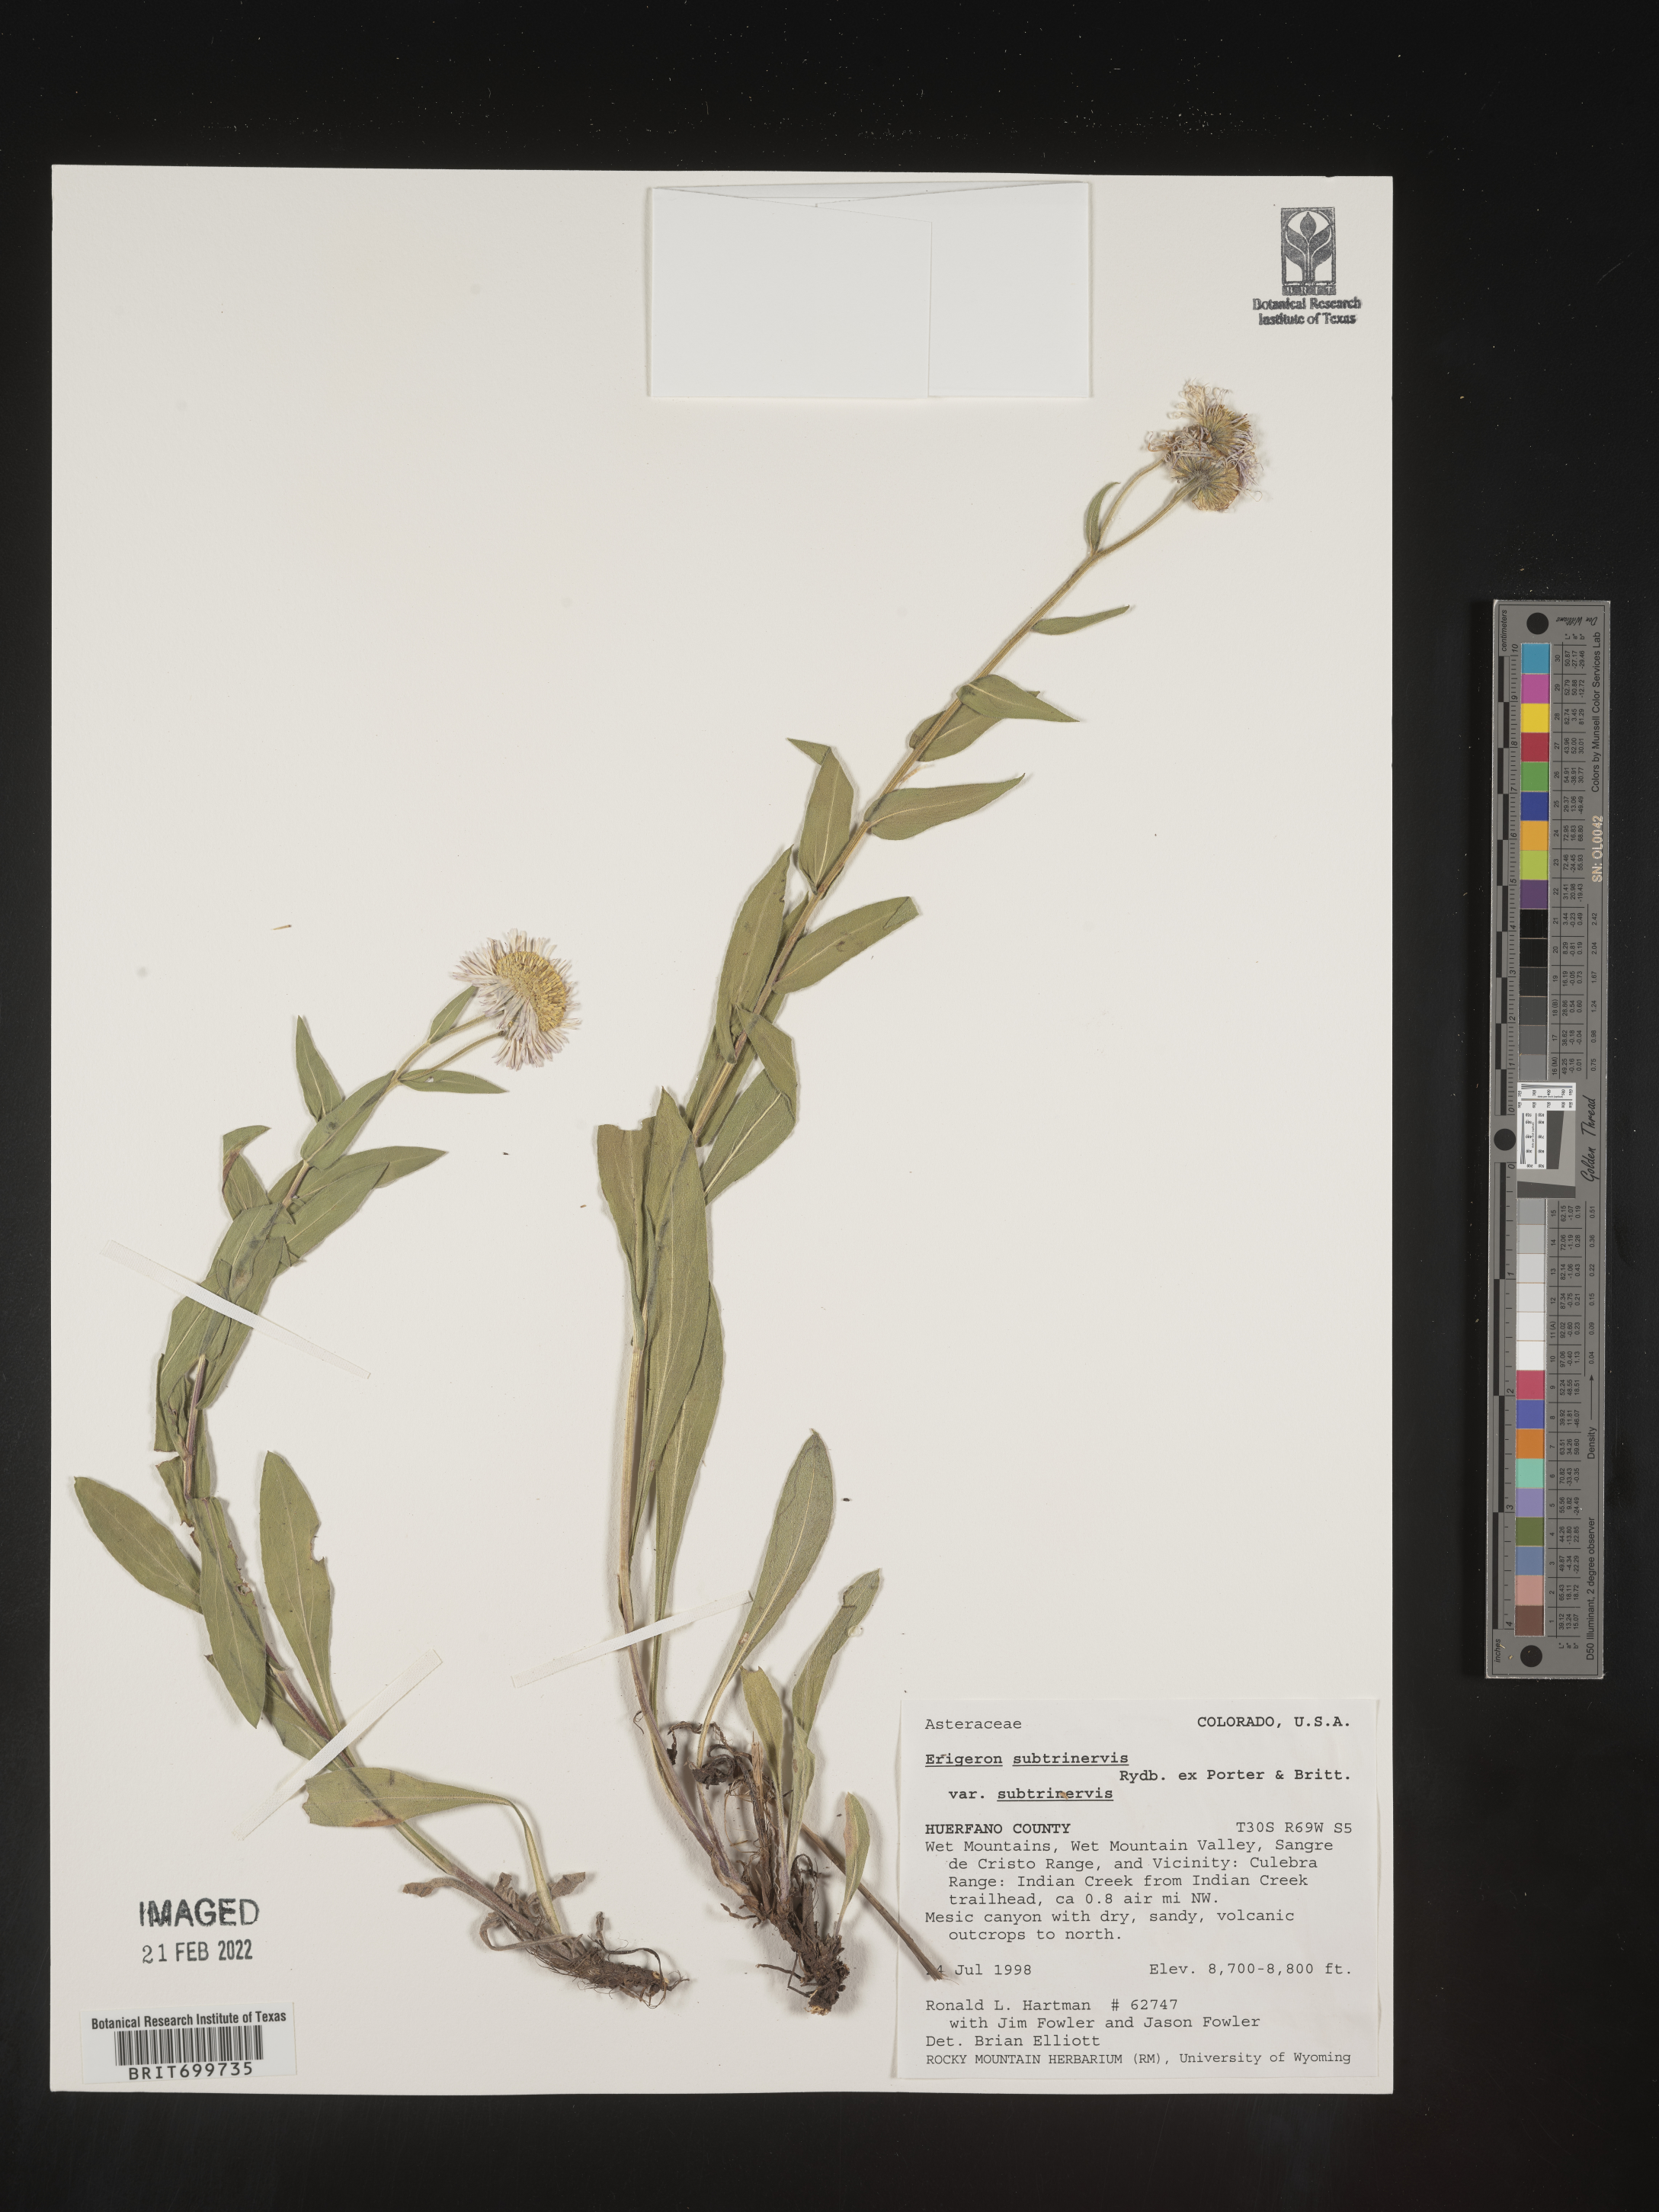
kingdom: Plantae
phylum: Tracheophyta
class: Magnoliopsida
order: Asterales
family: Asteraceae
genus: Erigeron
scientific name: Erigeron subtrinervis
